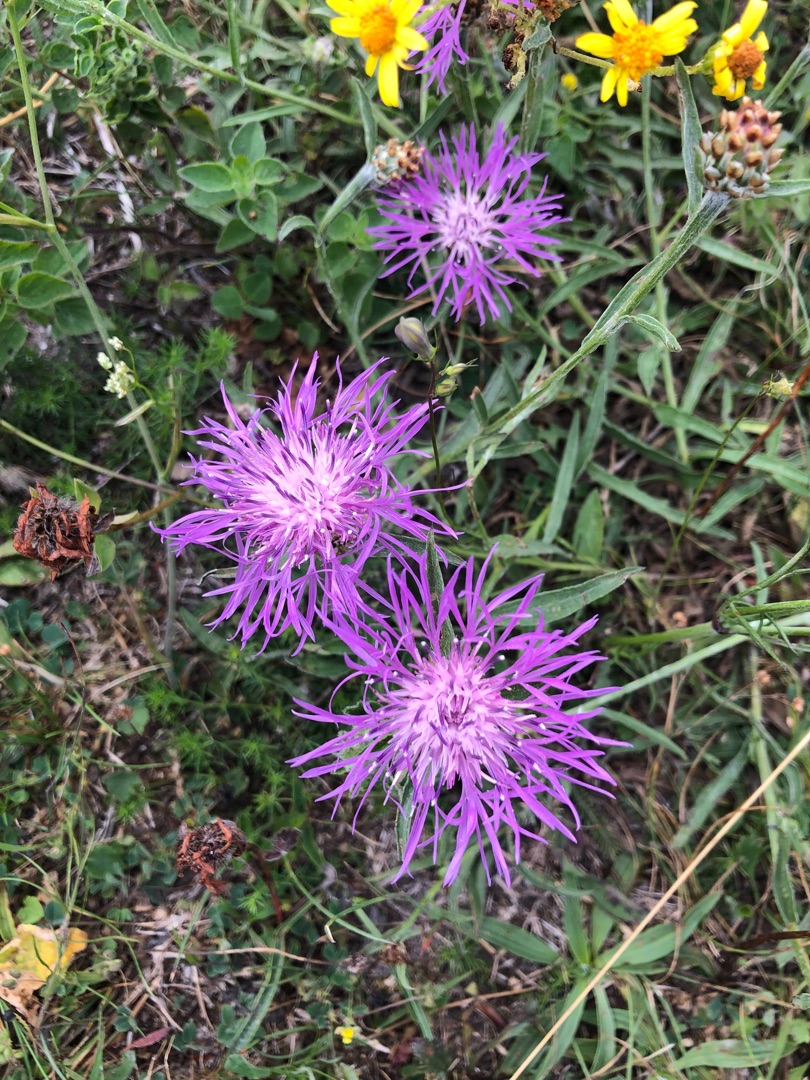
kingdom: Plantae
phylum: Tracheophyta
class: Magnoliopsida
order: Asterales
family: Asteraceae
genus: Centaurea
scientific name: Centaurea jacea
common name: Almindelig knopurt
